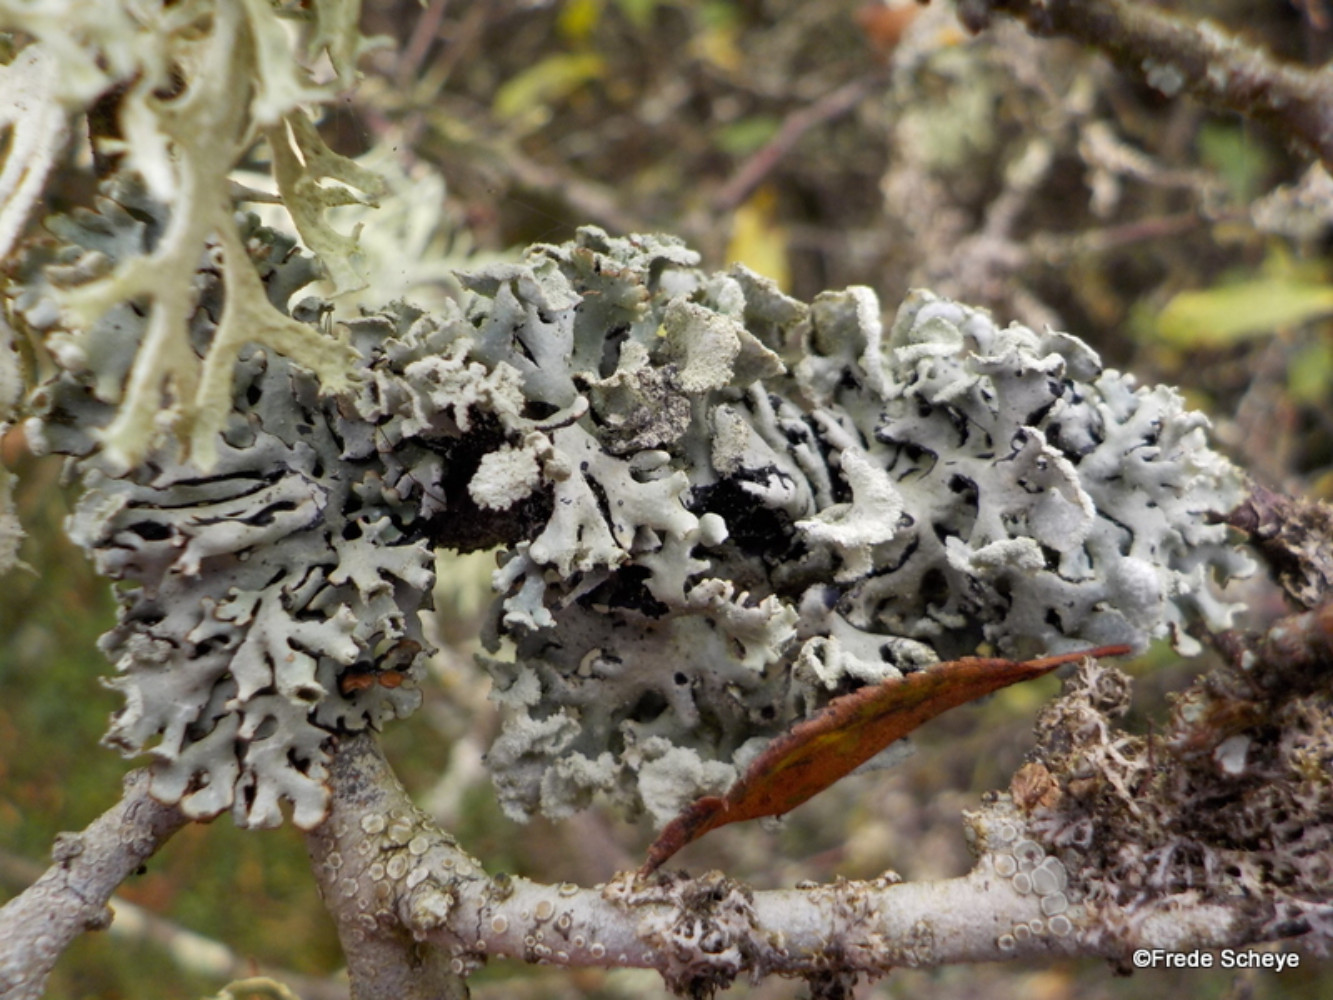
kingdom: Fungi
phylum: Ascomycota
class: Lecanoromycetes
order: Lecanorales
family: Parmeliaceae
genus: Hypogymnia
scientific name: Hypogymnia physodes
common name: almindelig kvistlav
